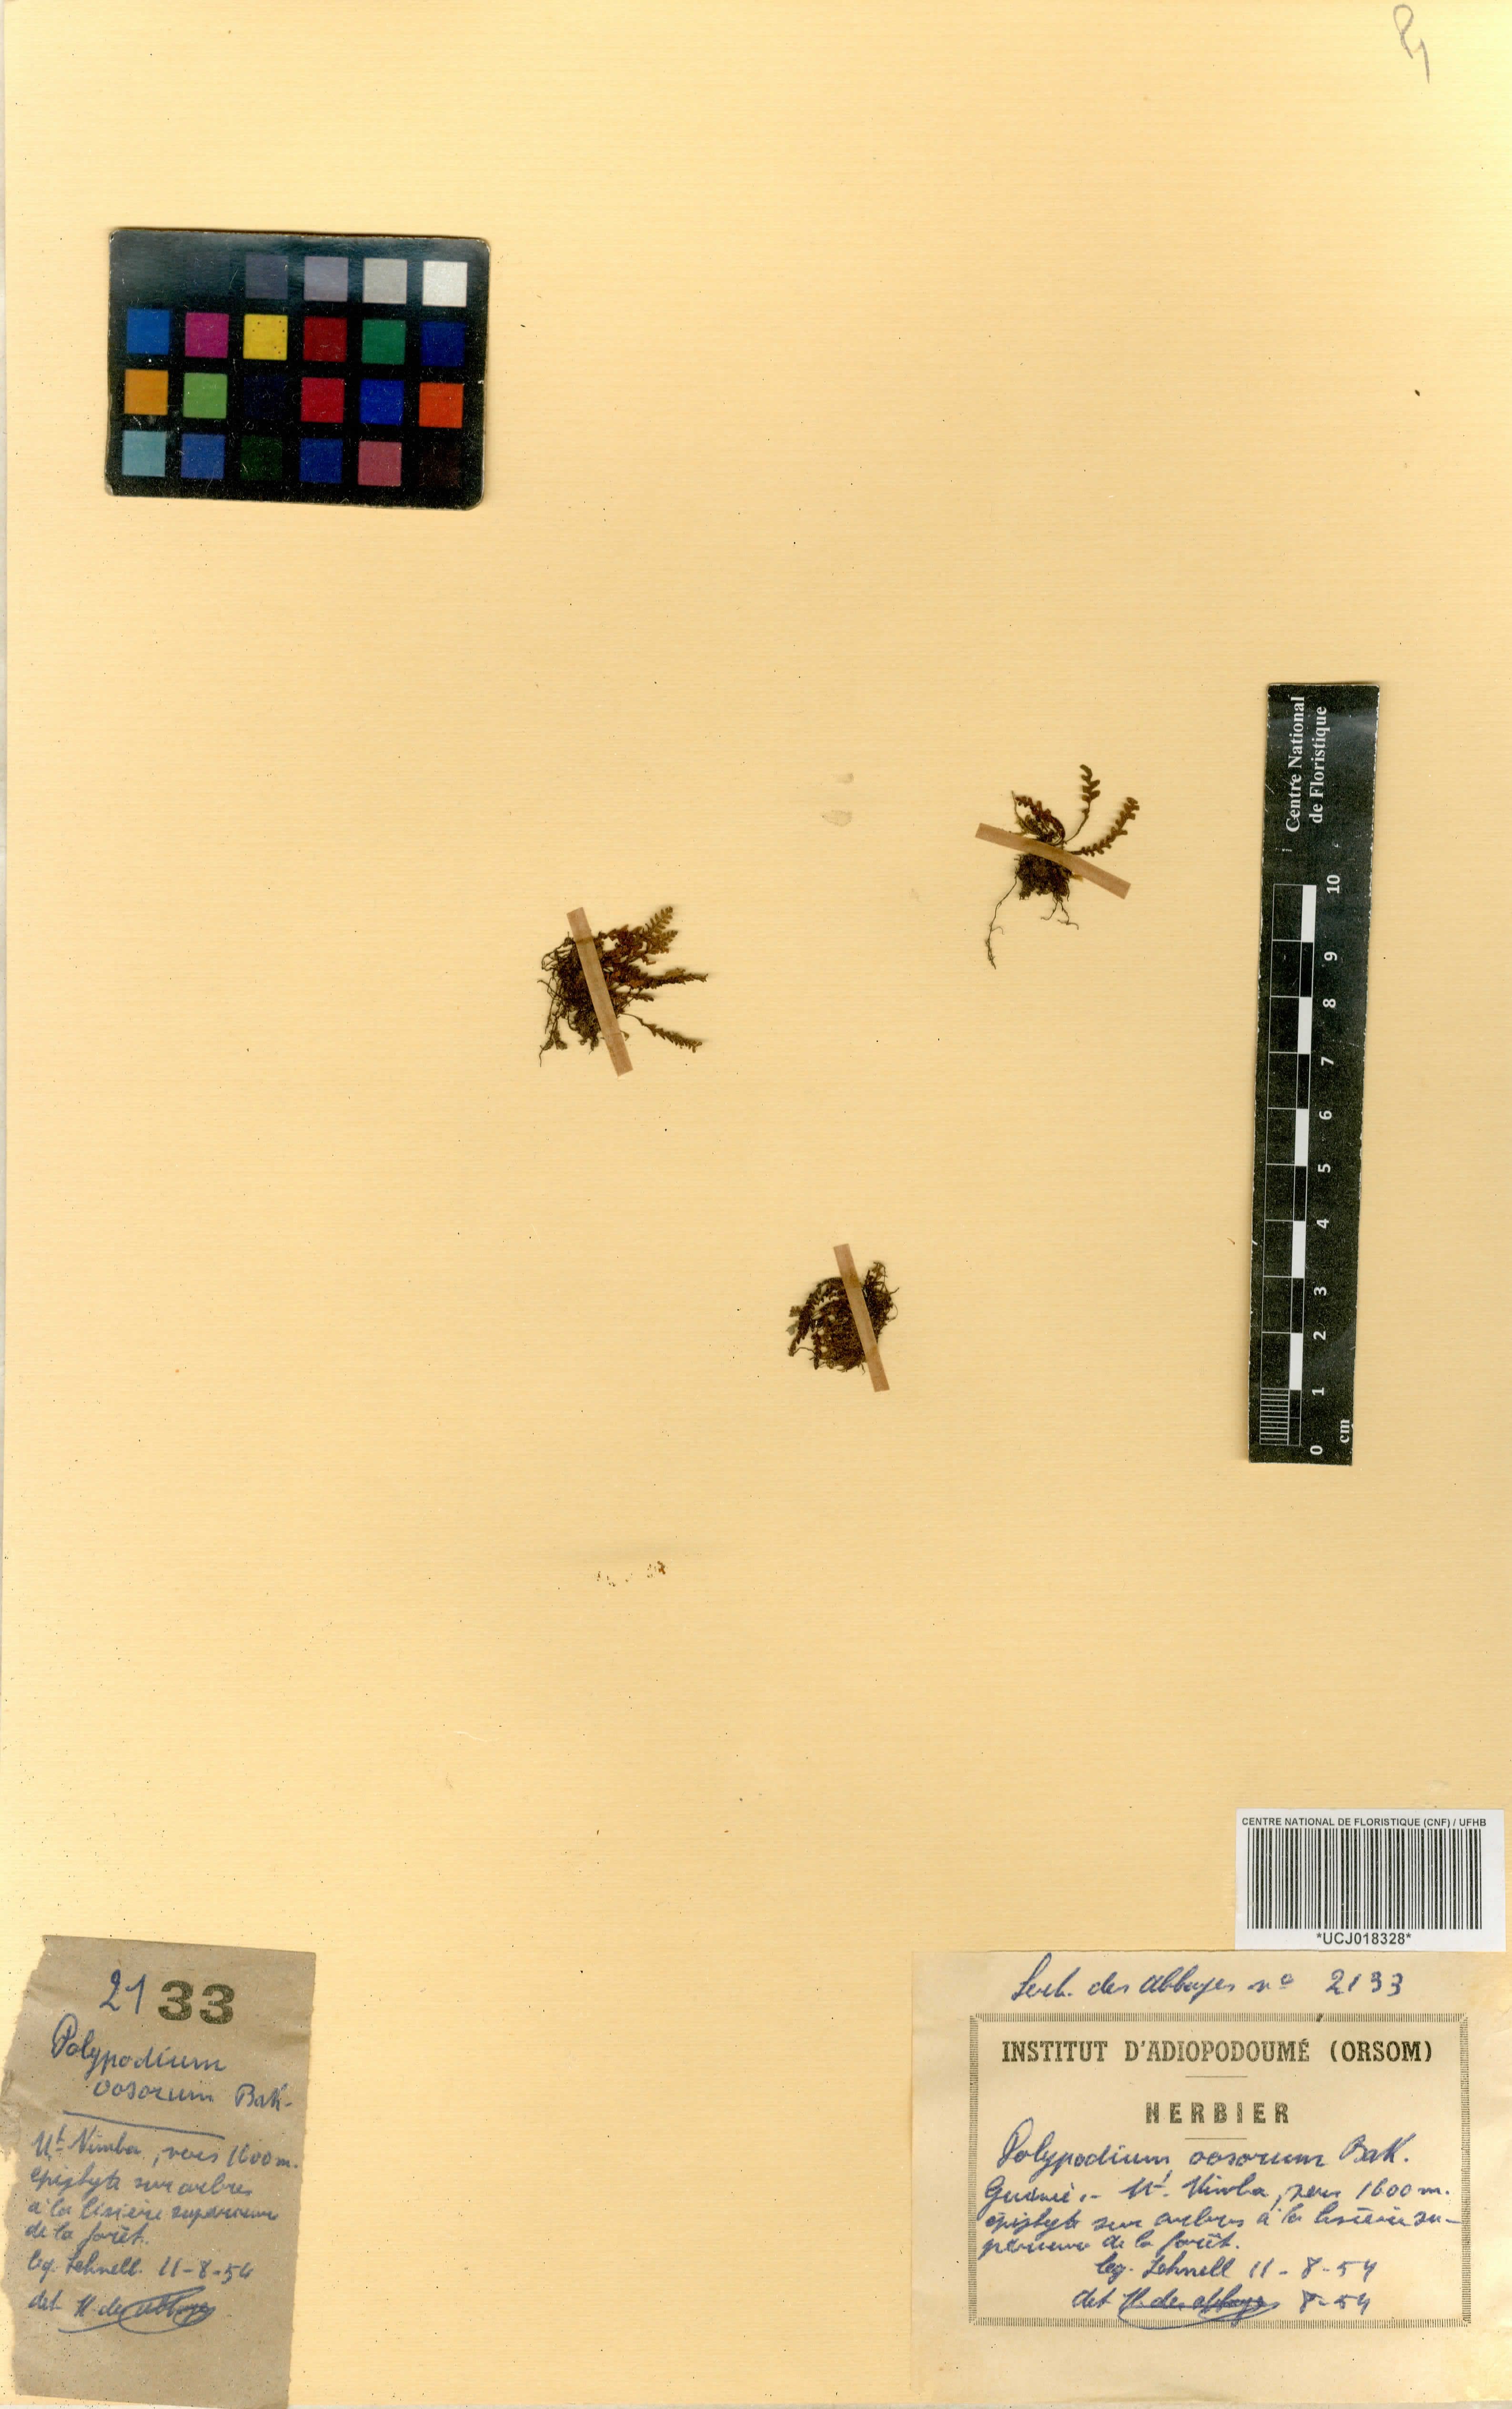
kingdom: Plantae
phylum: Tracheophyta
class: Polypodiopsida
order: Polypodiales
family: Polypodiaceae
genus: Stenogrammitis
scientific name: Stenogrammitis oosora
